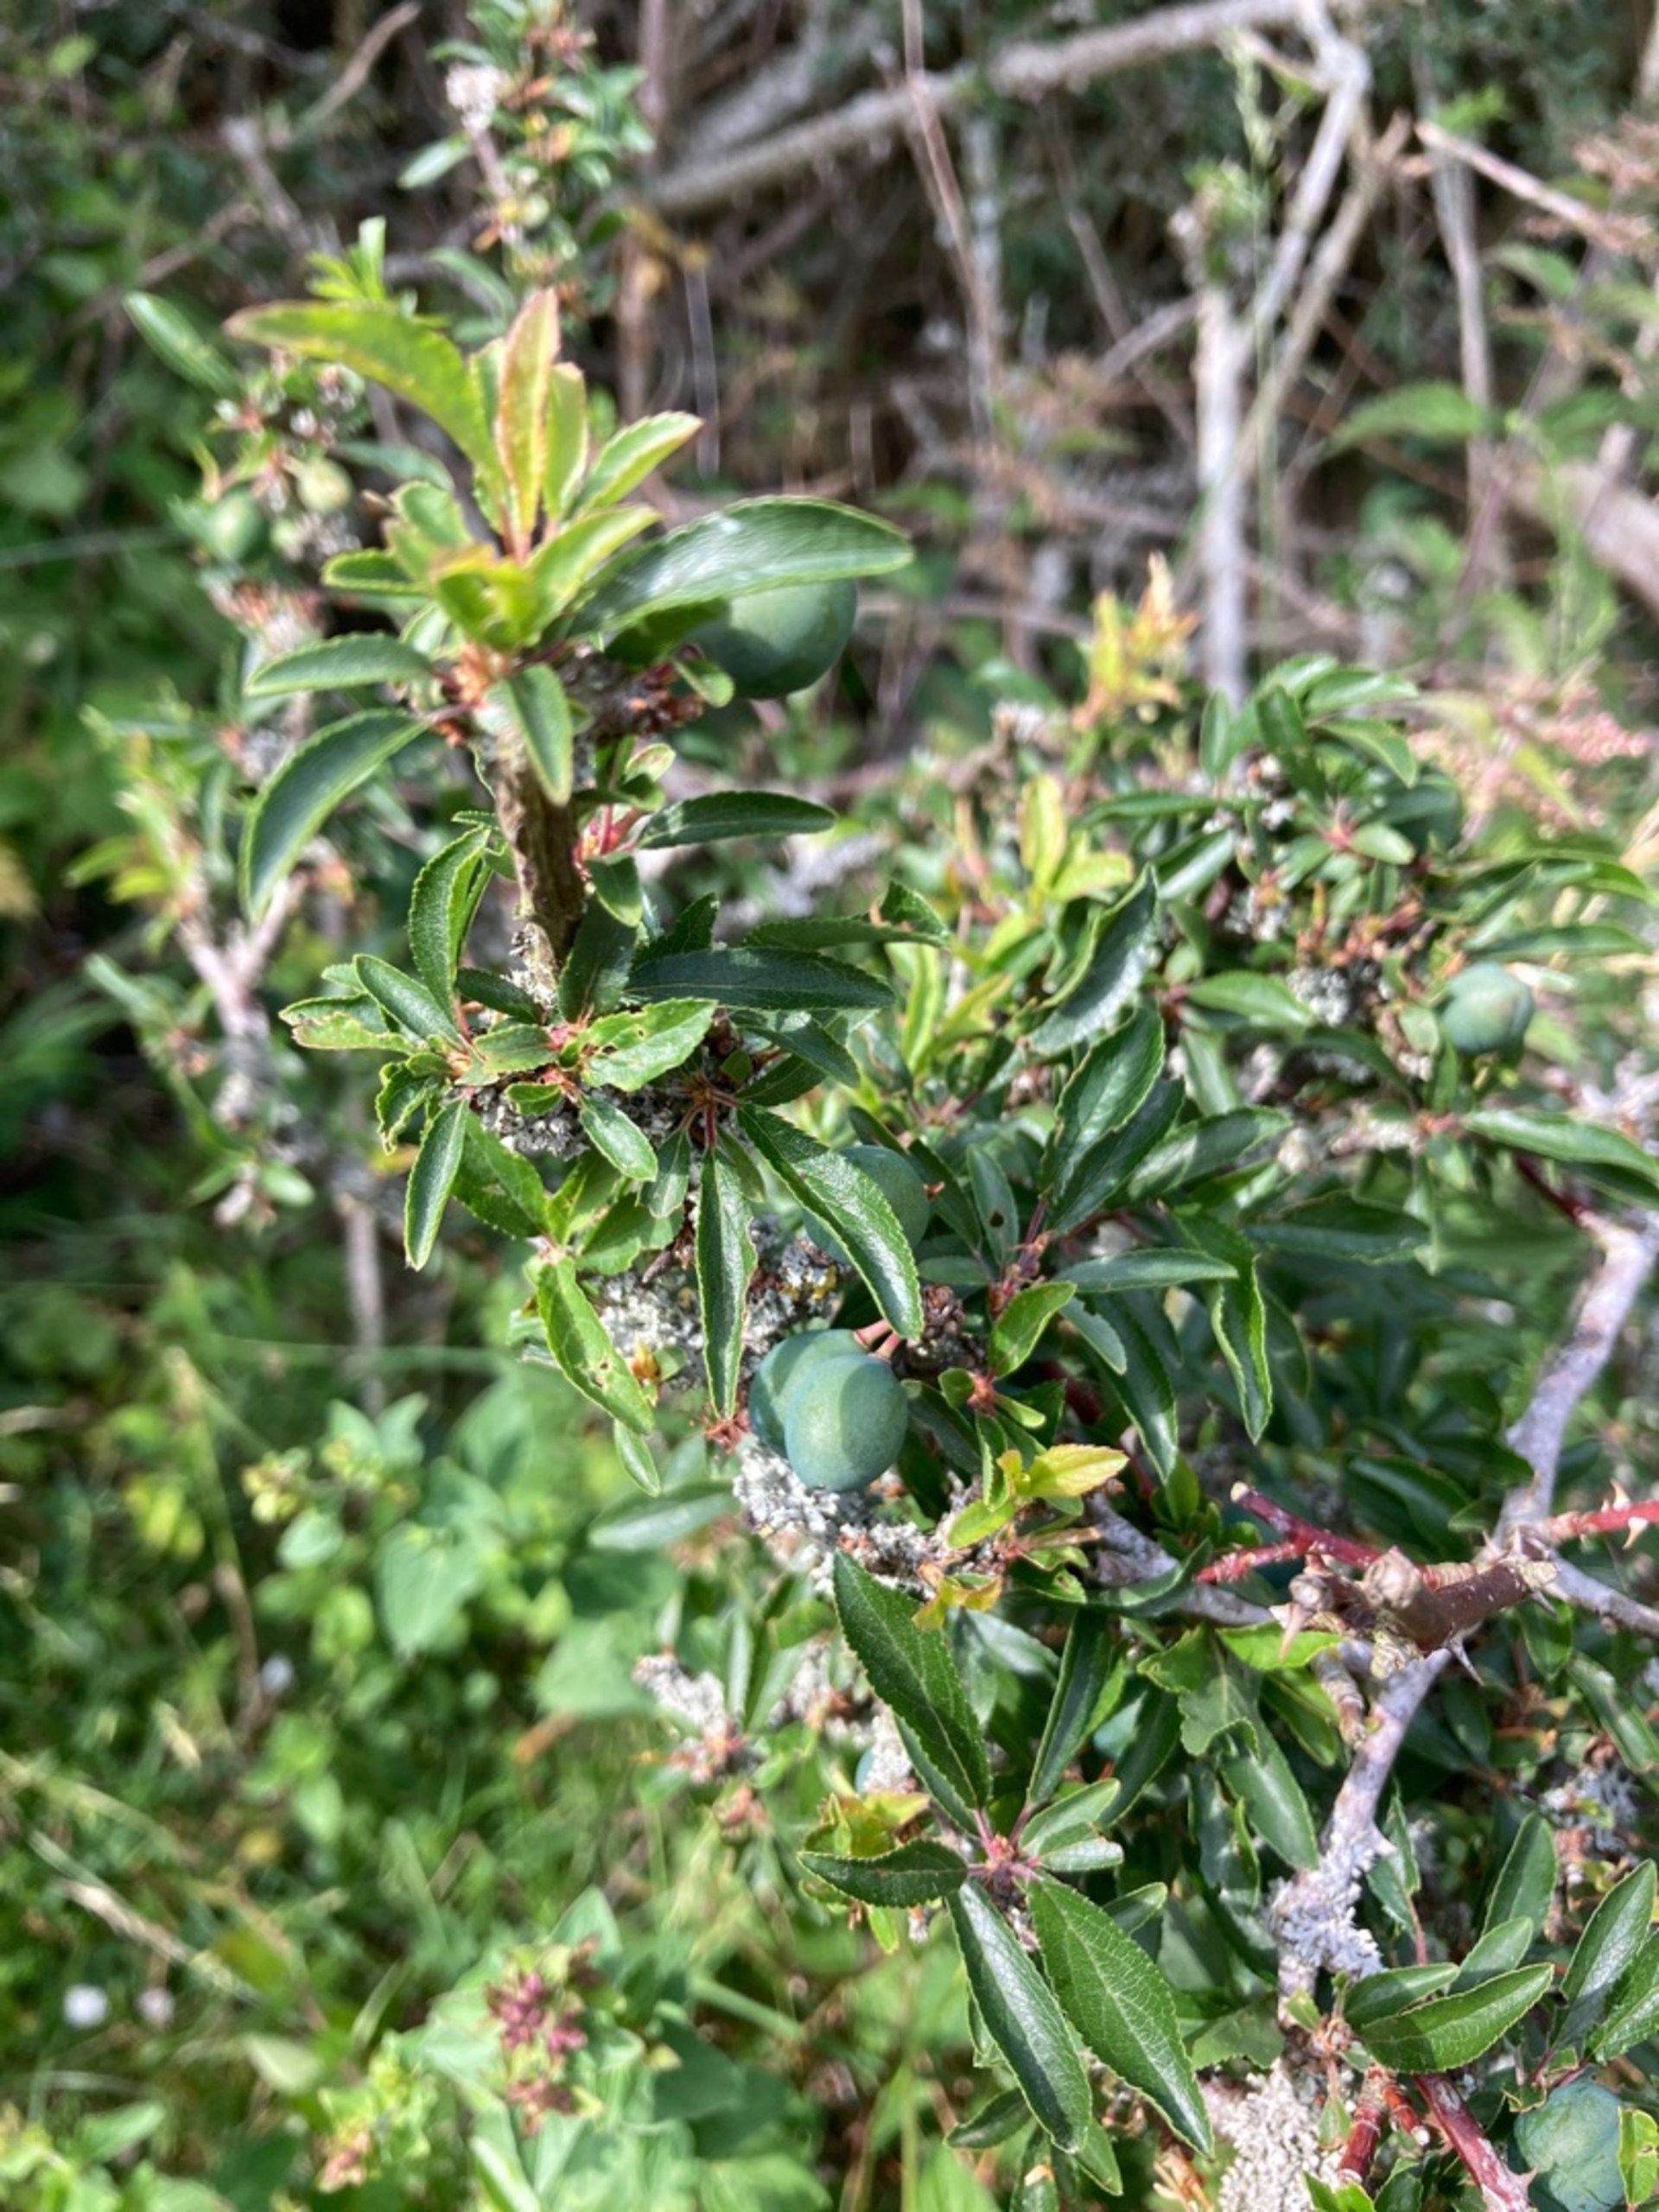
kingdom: Plantae
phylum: Tracheophyta
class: Magnoliopsida
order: Rosales
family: Rosaceae
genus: Prunus
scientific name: Prunus spinosa
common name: Slåen
